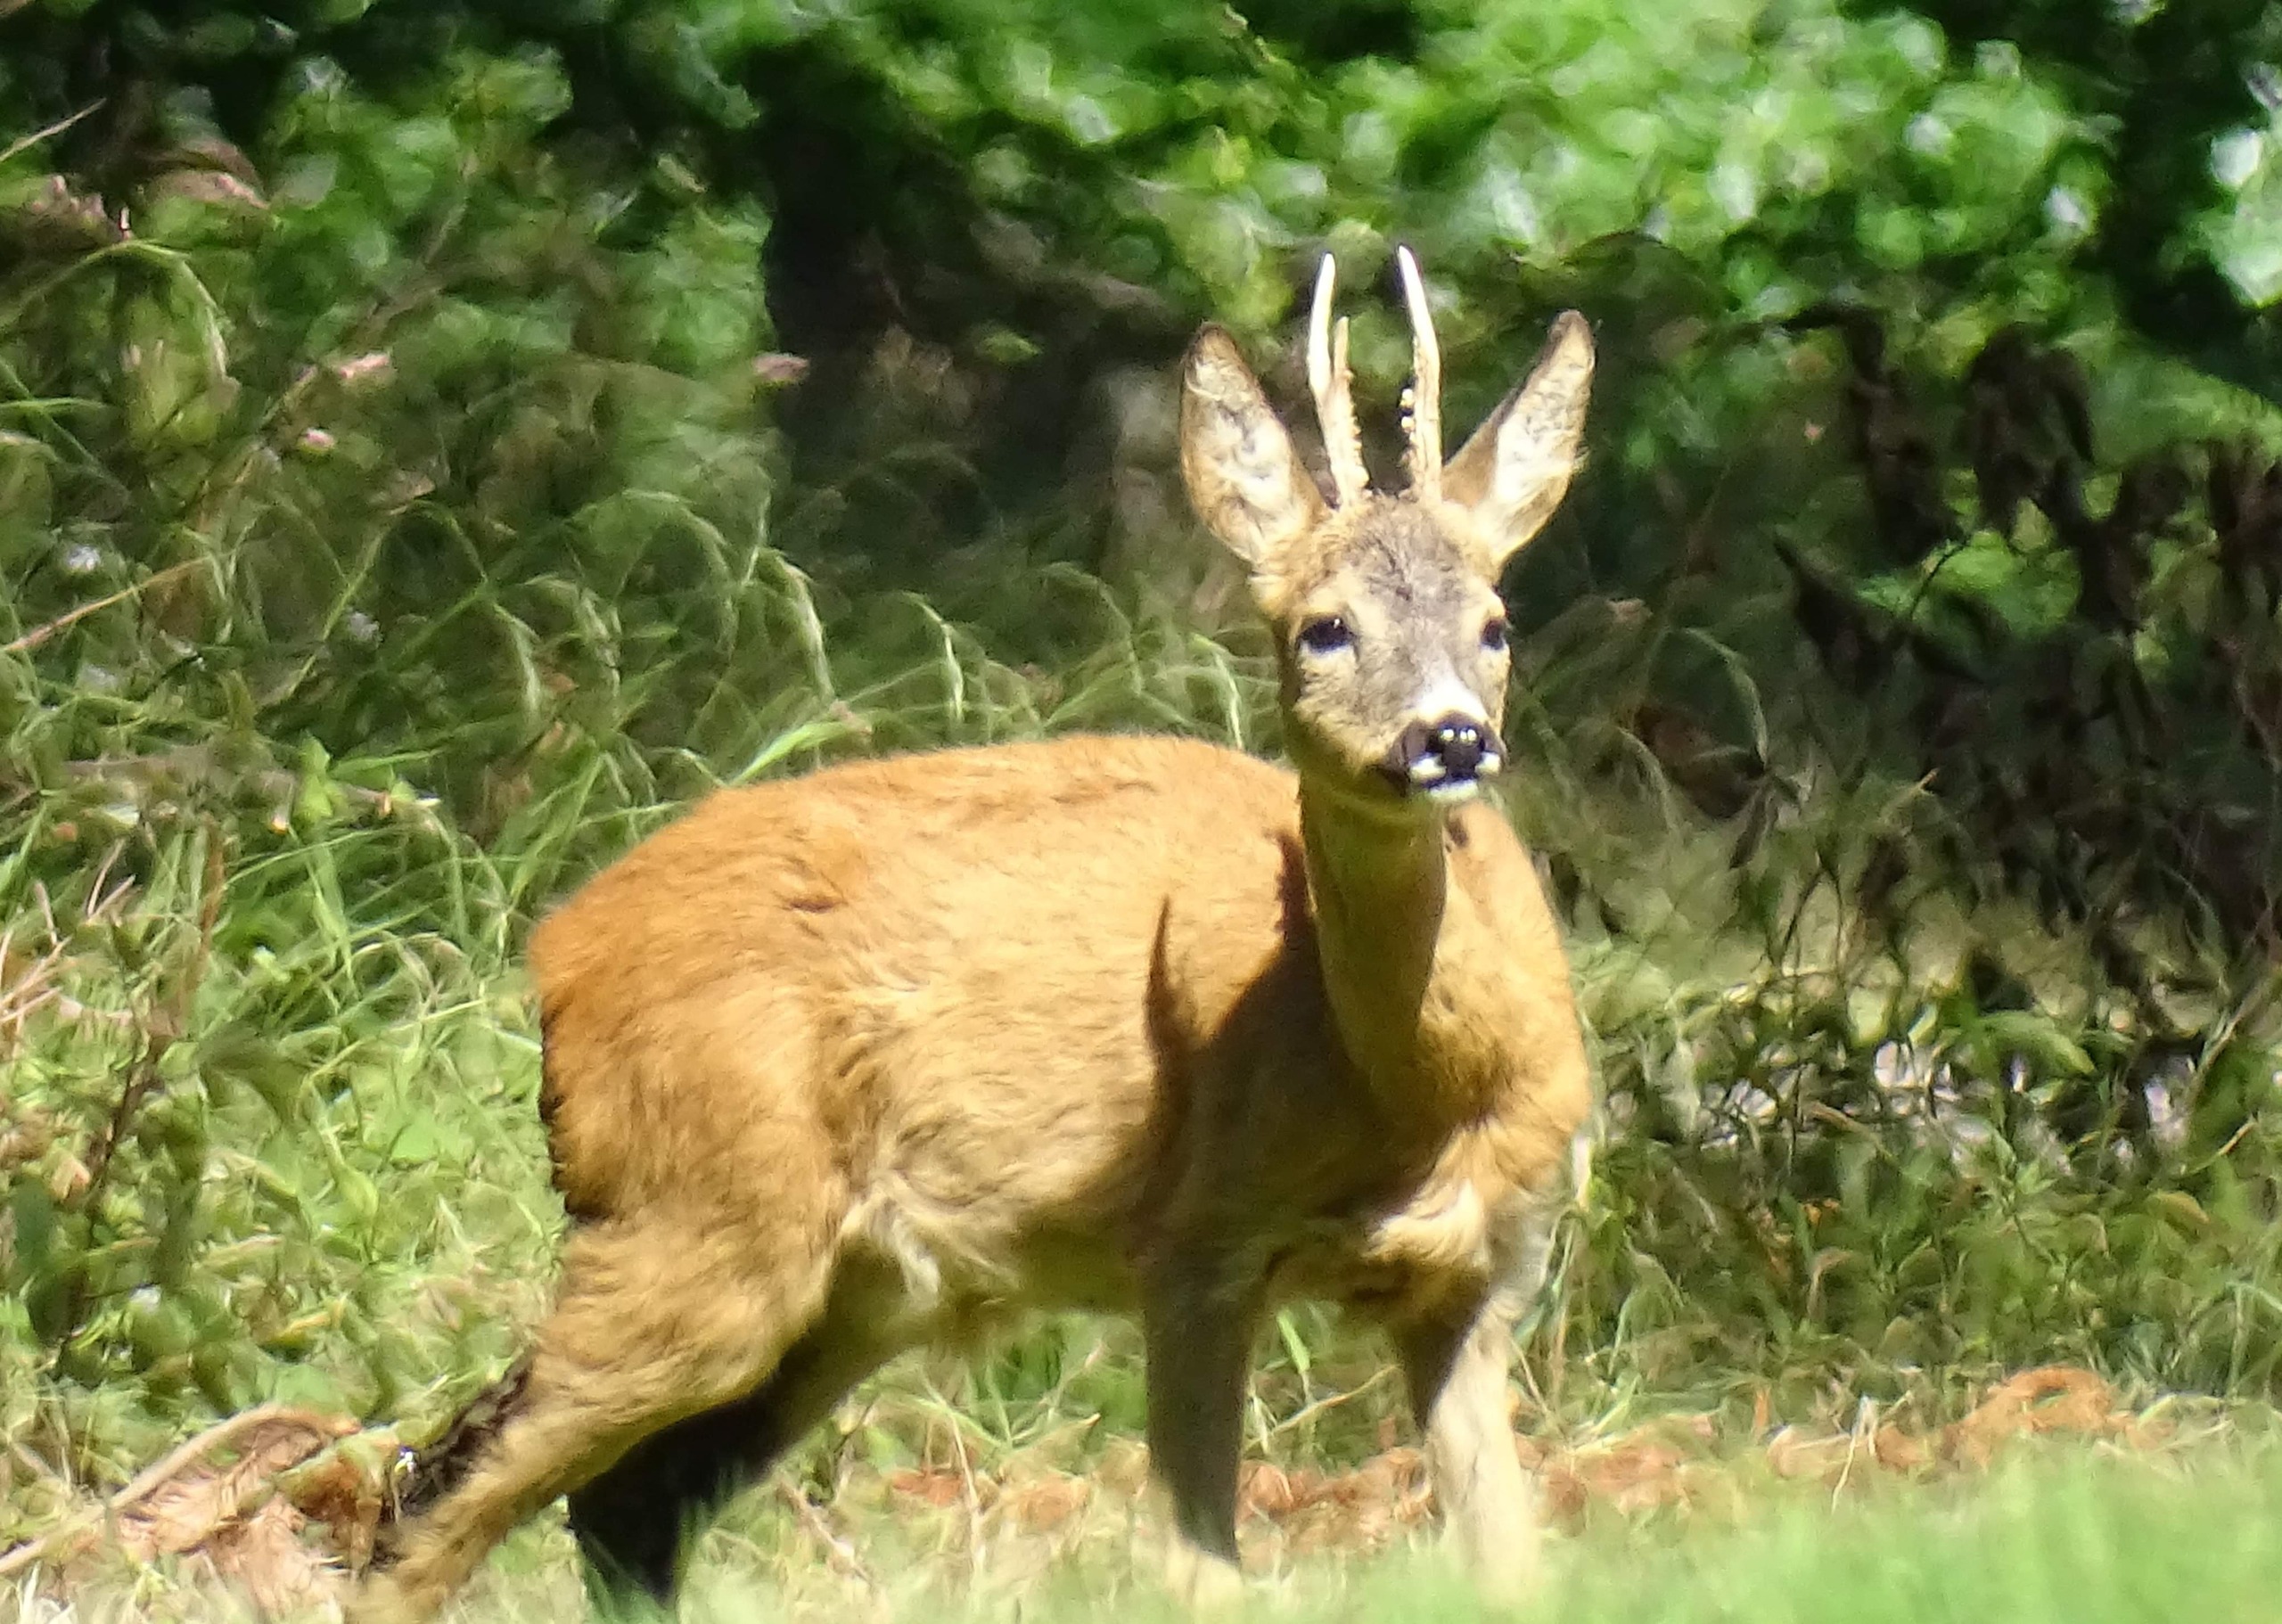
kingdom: Animalia
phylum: Chordata
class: Mammalia
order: Artiodactyla
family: Cervidae
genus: Capreolus
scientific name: Capreolus capreolus
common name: Rådyr
